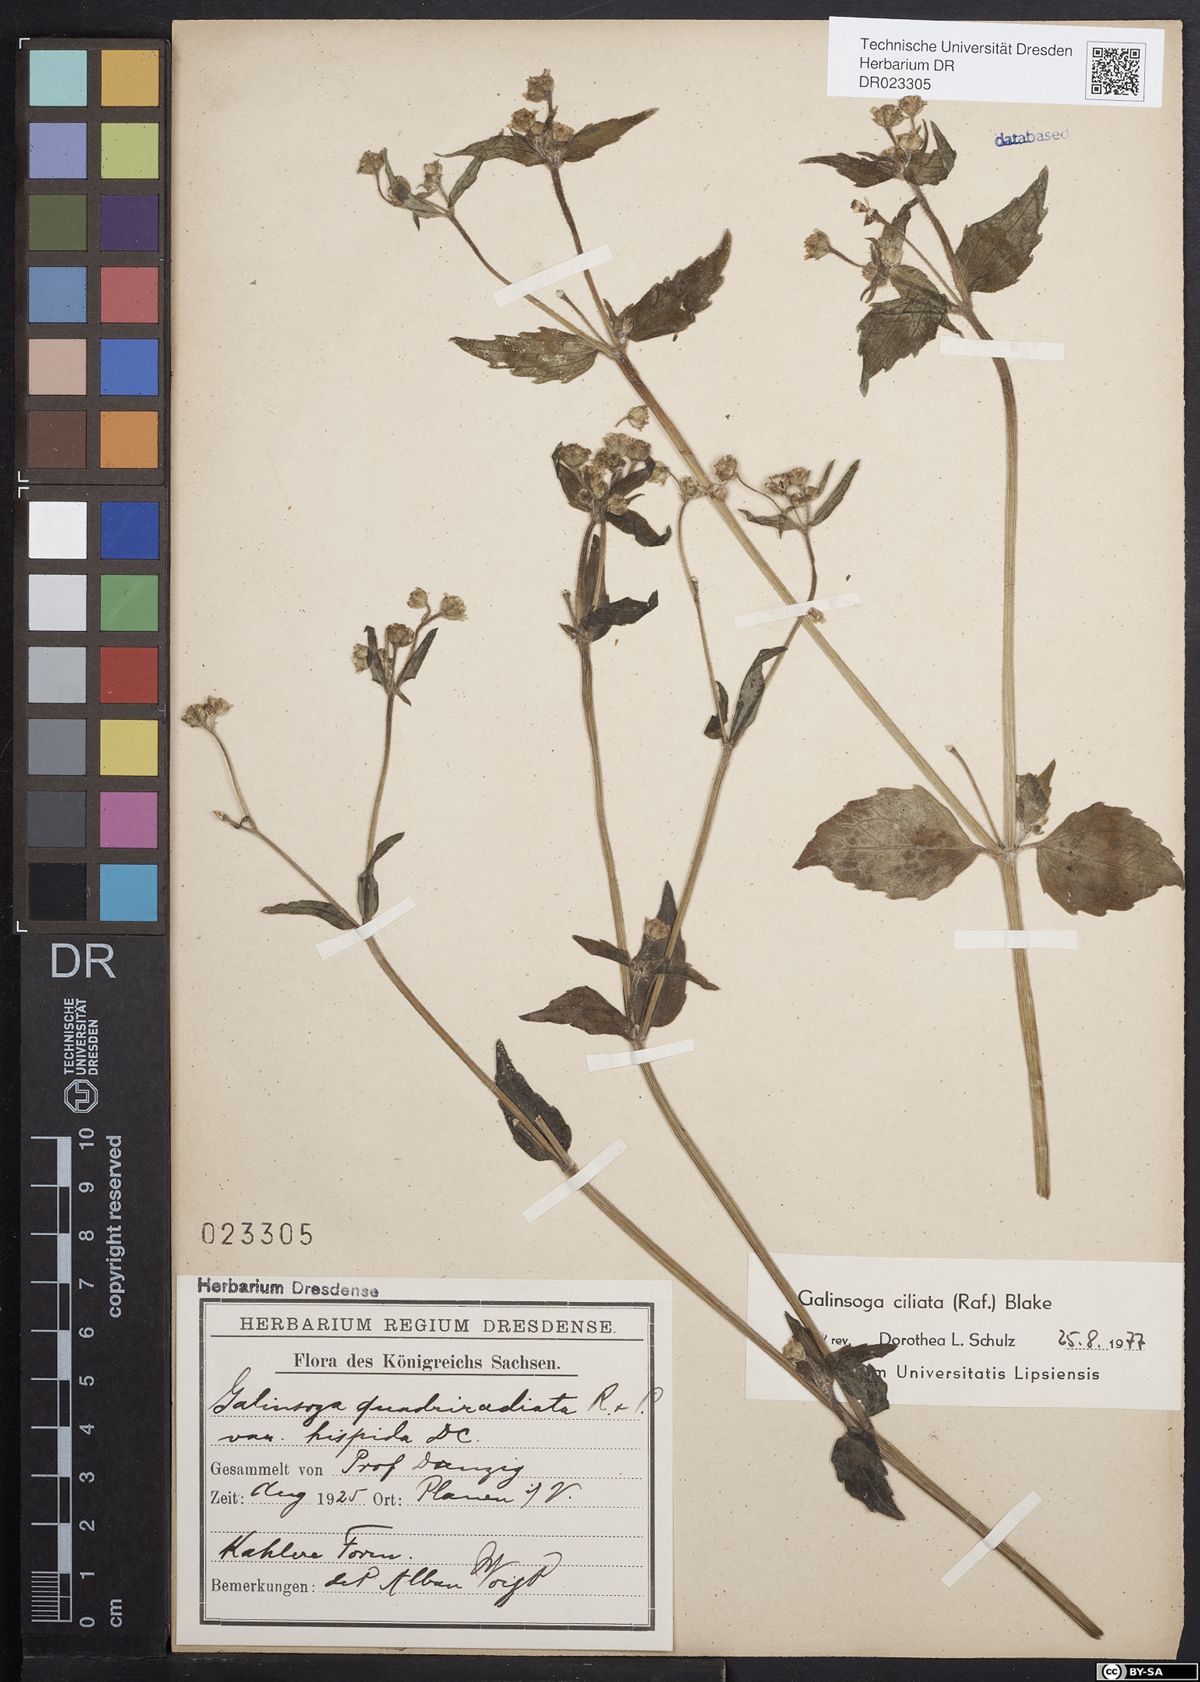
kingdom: Plantae
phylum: Tracheophyta
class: Magnoliopsida
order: Asterales
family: Asteraceae
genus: Galinsoga
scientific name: Galinsoga quadriradiata
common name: Shaggy soldier
